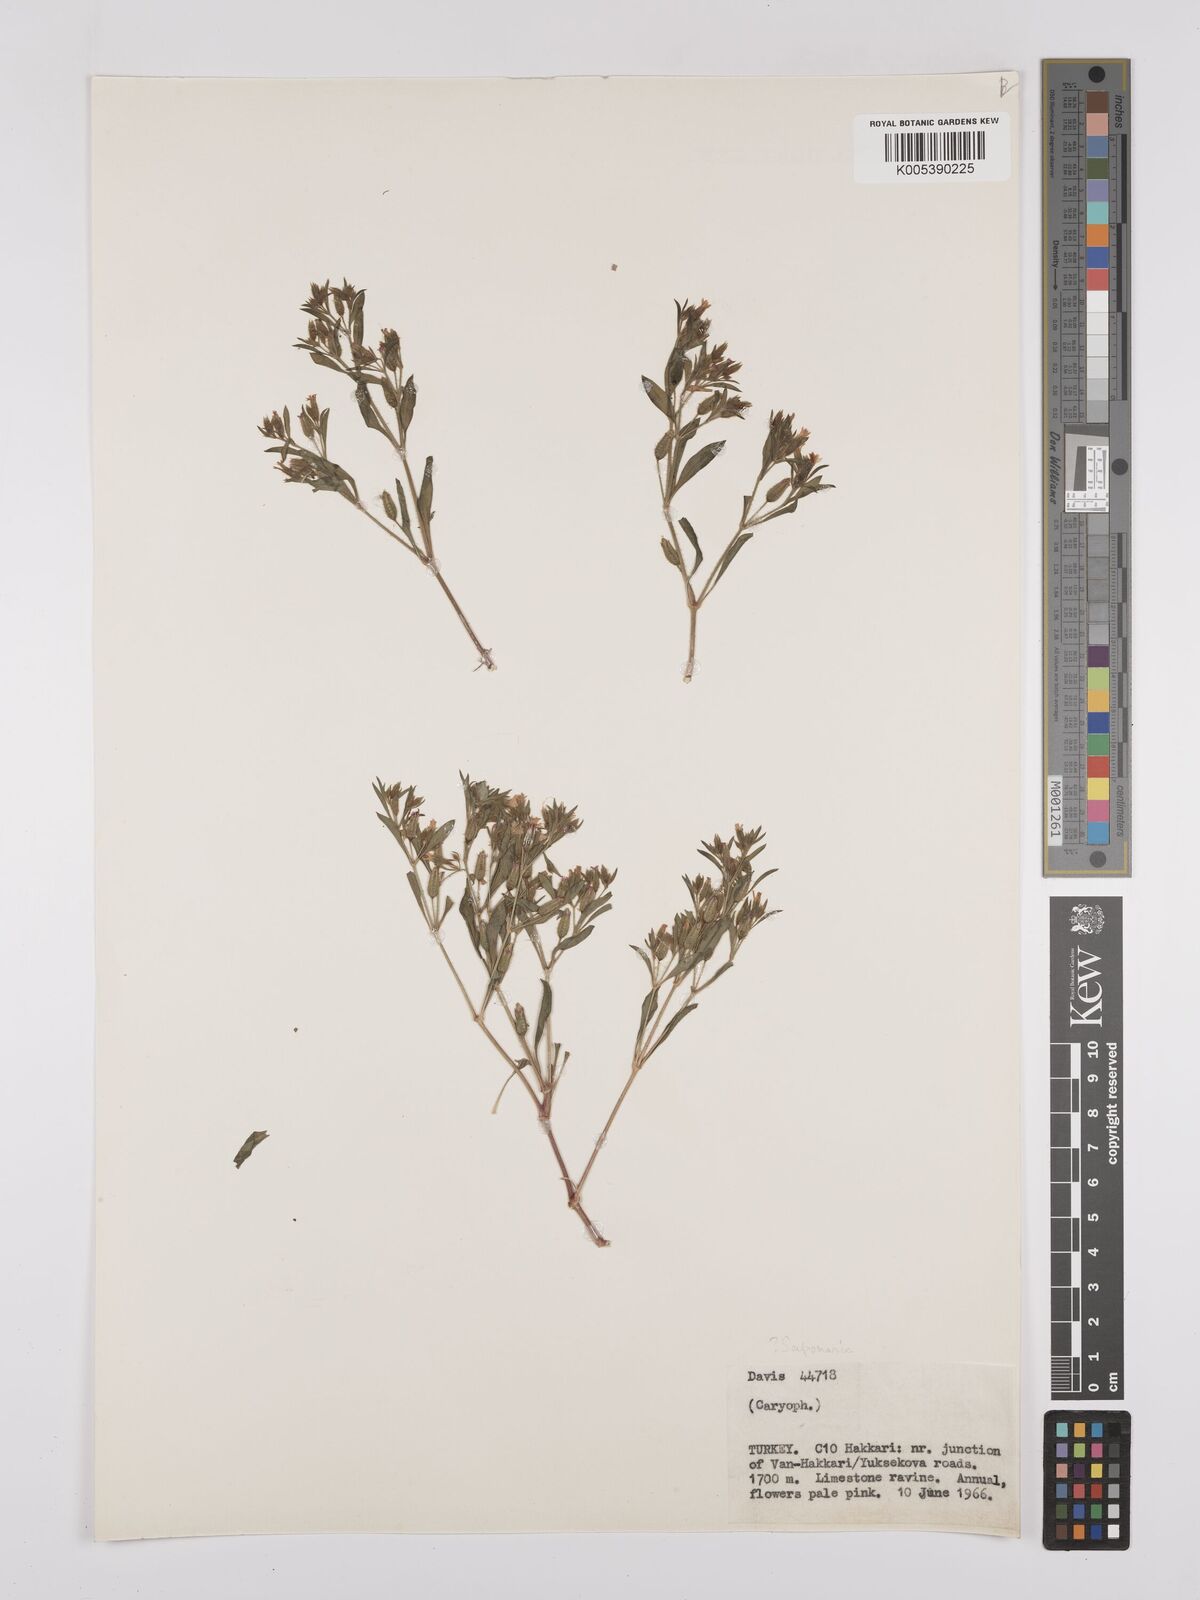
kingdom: Plantae
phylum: Tracheophyta
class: Magnoliopsida
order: Caryophyllales
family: Caryophyllaceae
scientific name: Caryophyllaceae
